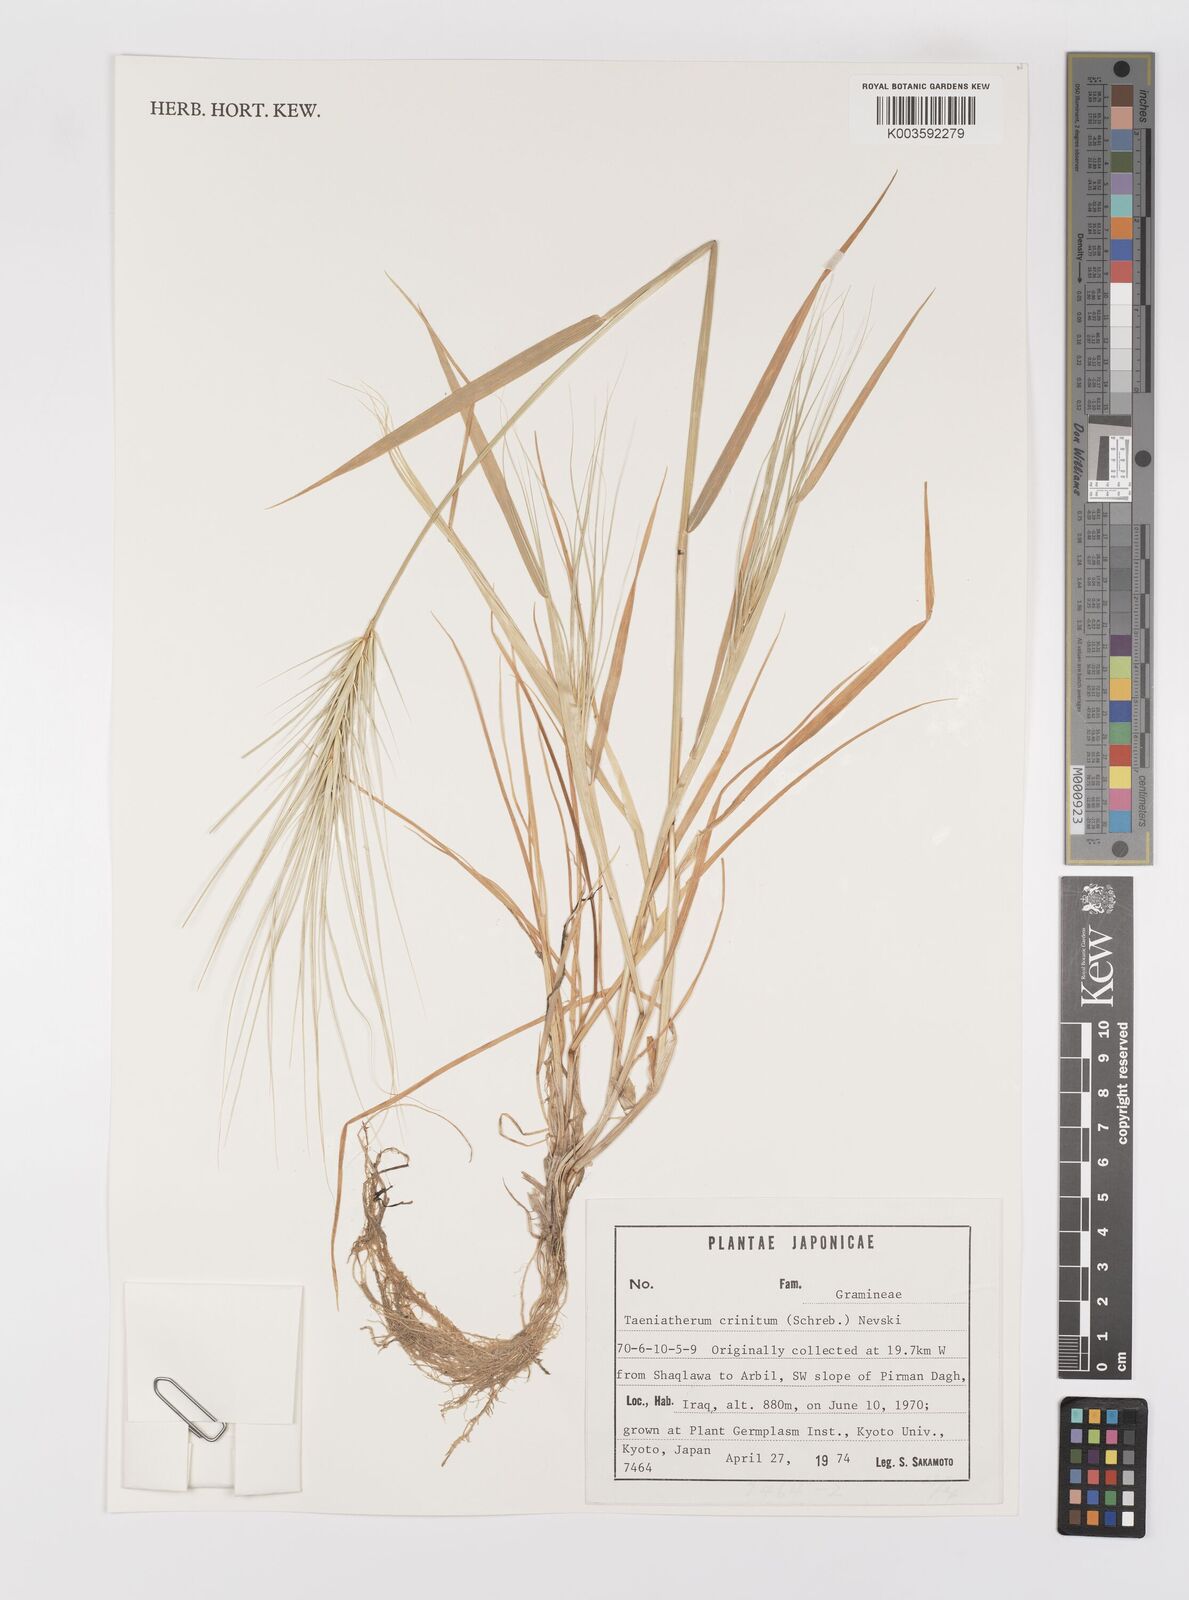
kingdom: Plantae
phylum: Tracheophyta
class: Liliopsida
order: Poales
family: Poaceae
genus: Taeniatherum
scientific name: Taeniatherum caput-medusae
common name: Medusahead
